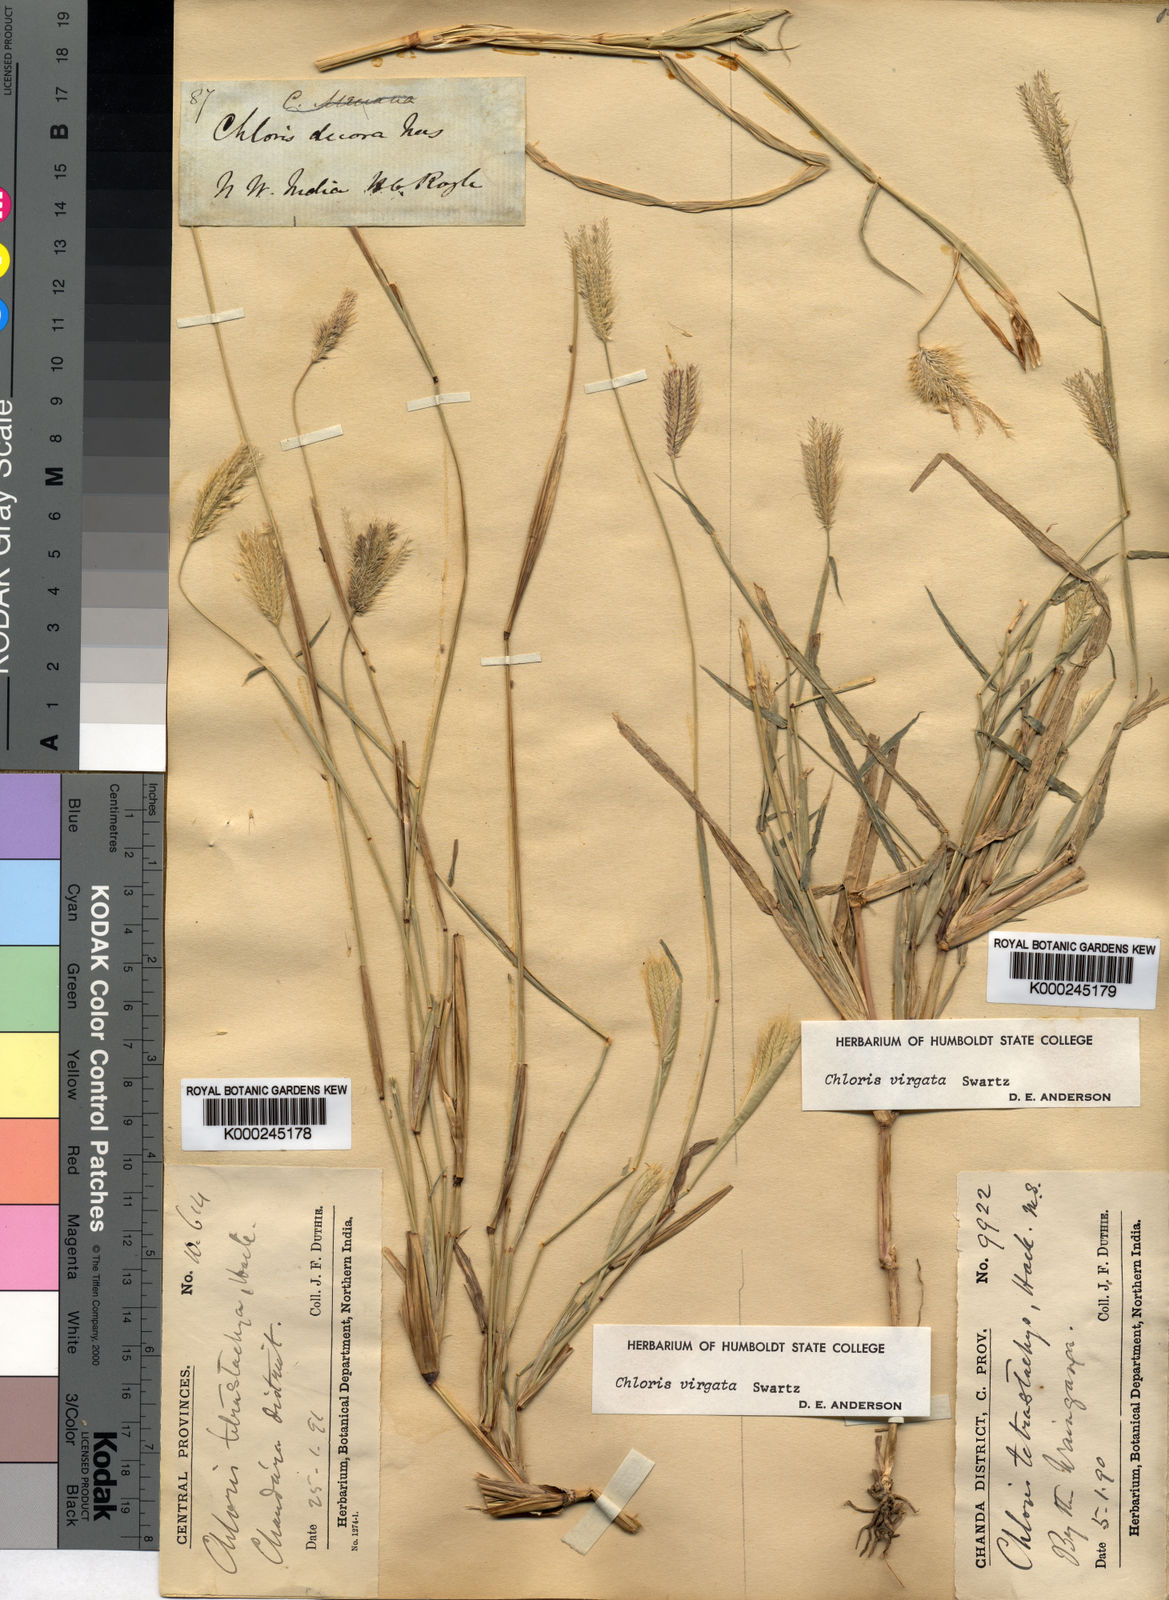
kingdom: Plantae
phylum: Tracheophyta
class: Liliopsida
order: Poales
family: Poaceae
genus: Chloris
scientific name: Chloris virgata
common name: Feathery rhodes-grass
